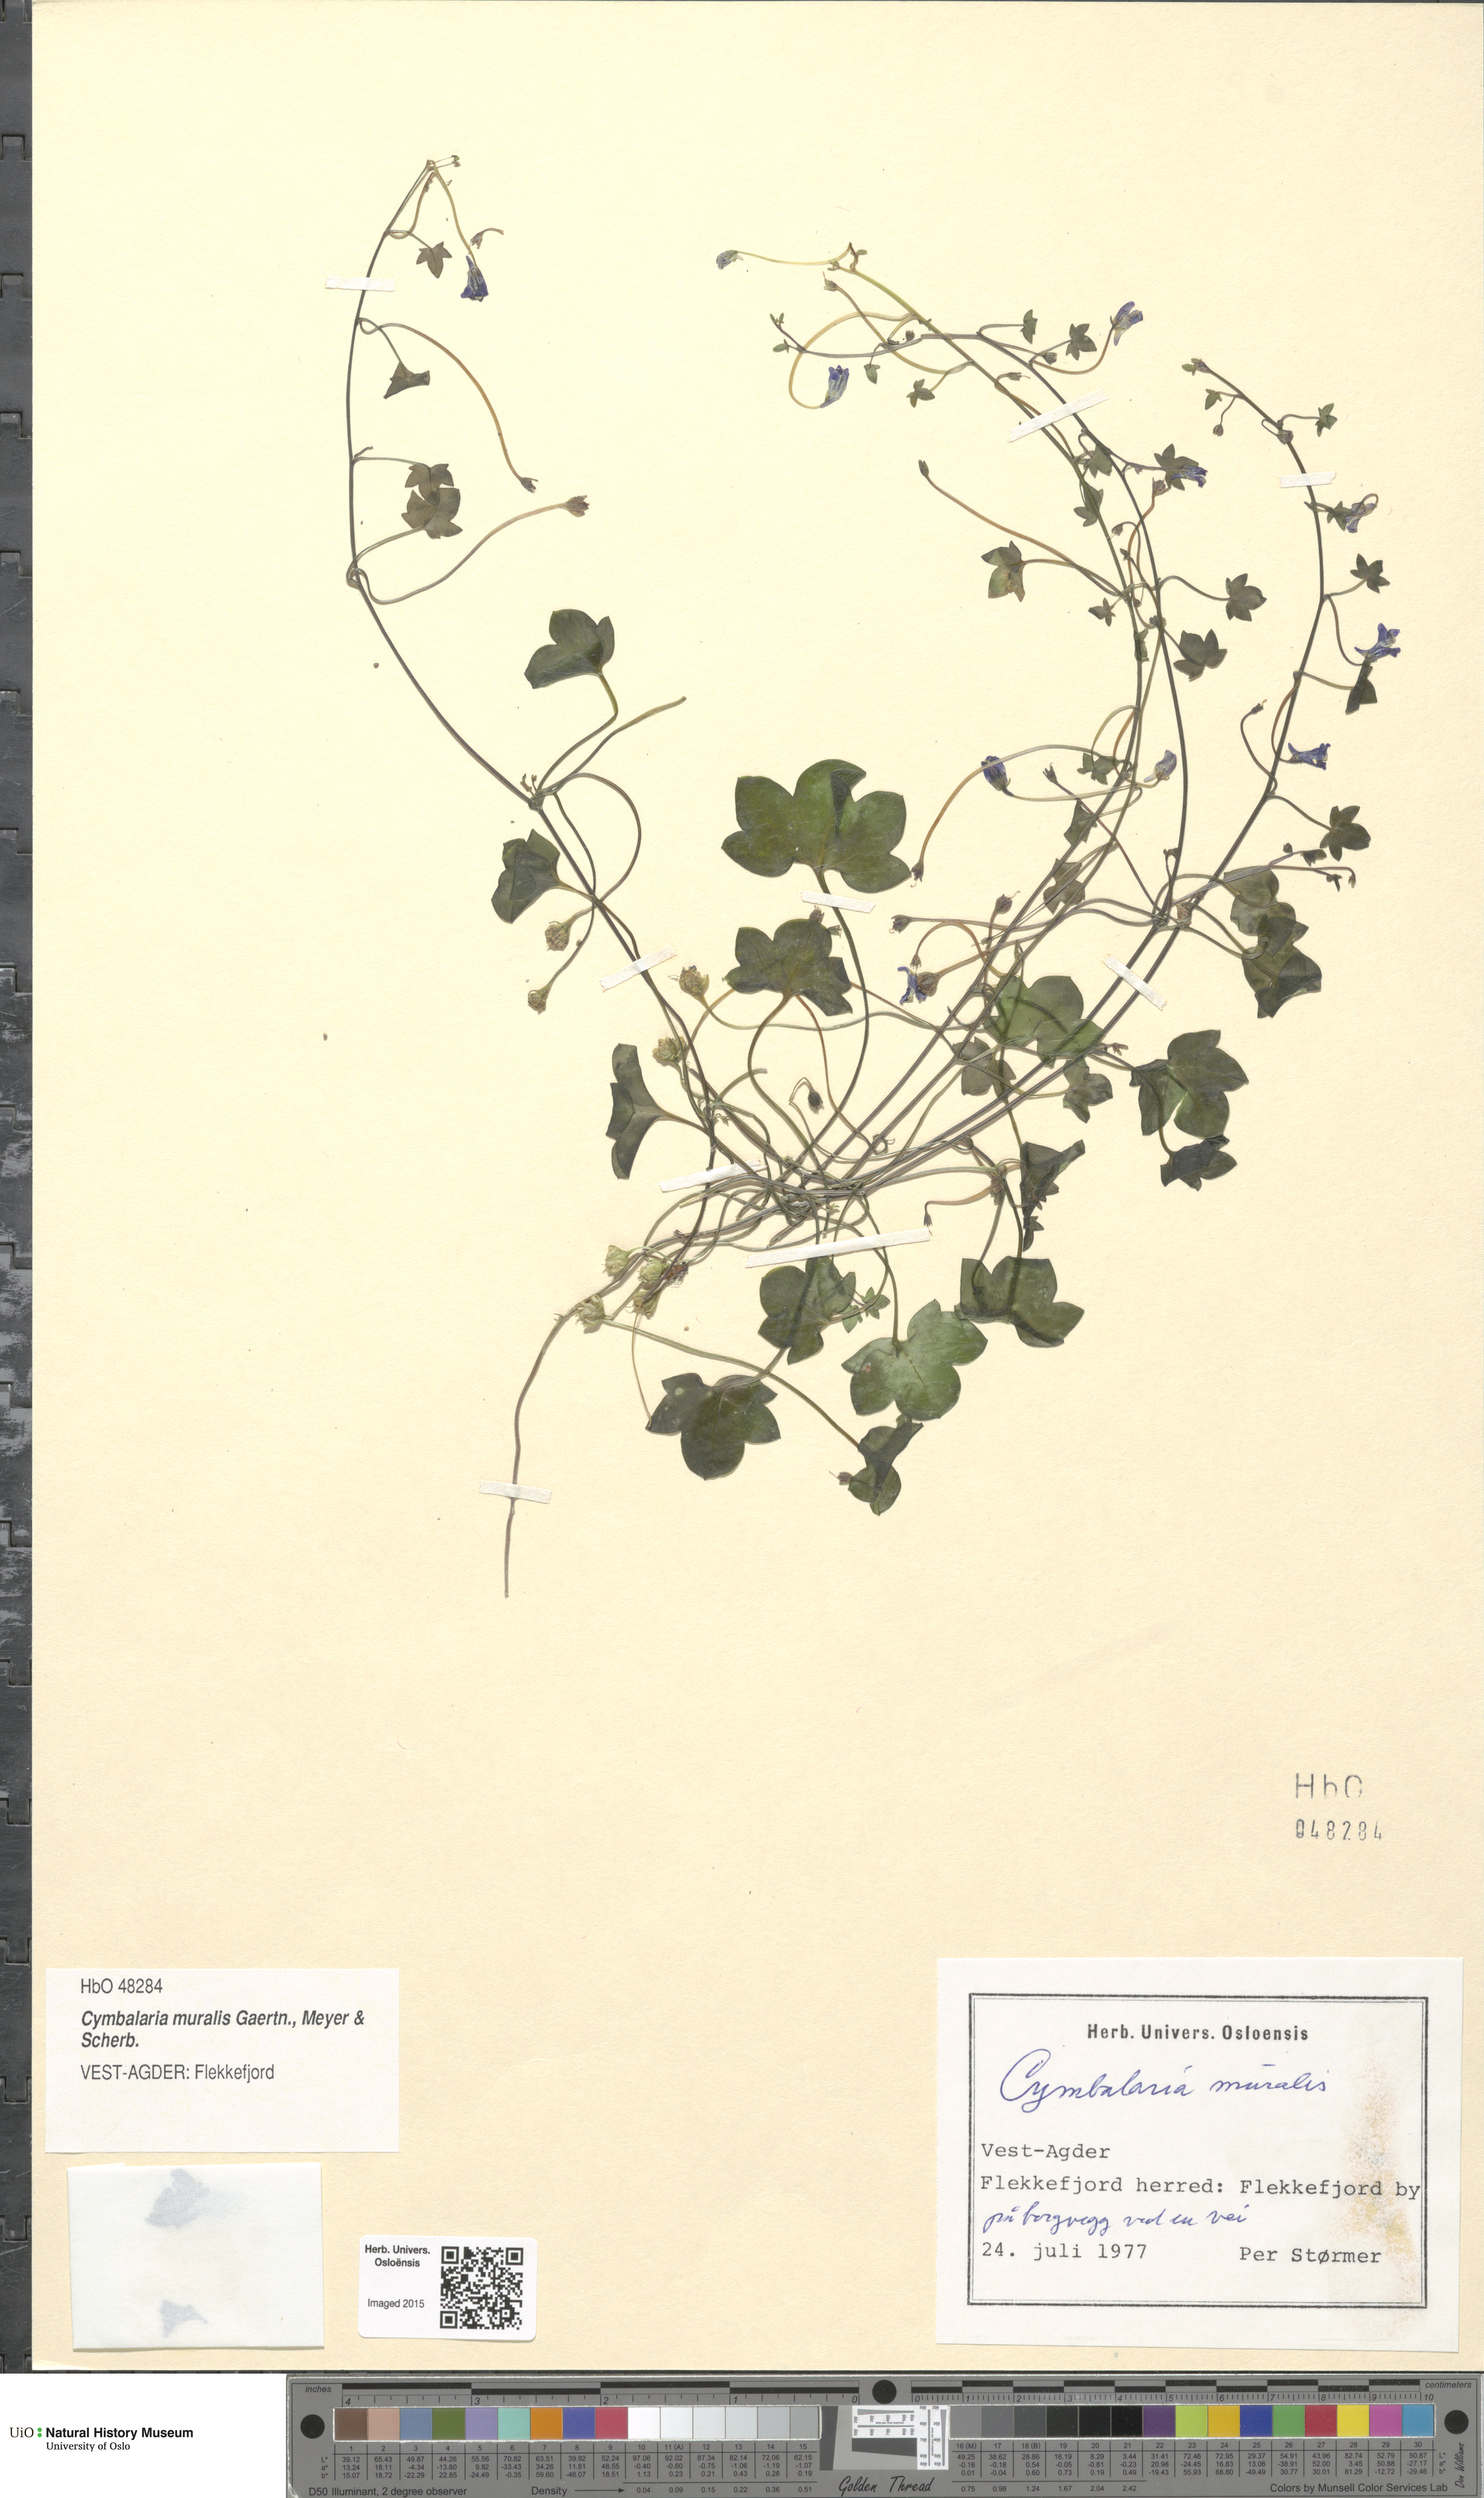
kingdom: Plantae
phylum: Tracheophyta
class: Magnoliopsida
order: Lamiales
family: Plantaginaceae
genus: Cymbalaria
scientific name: Cymbalaria muralis
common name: Ivy-leaved toadflax
